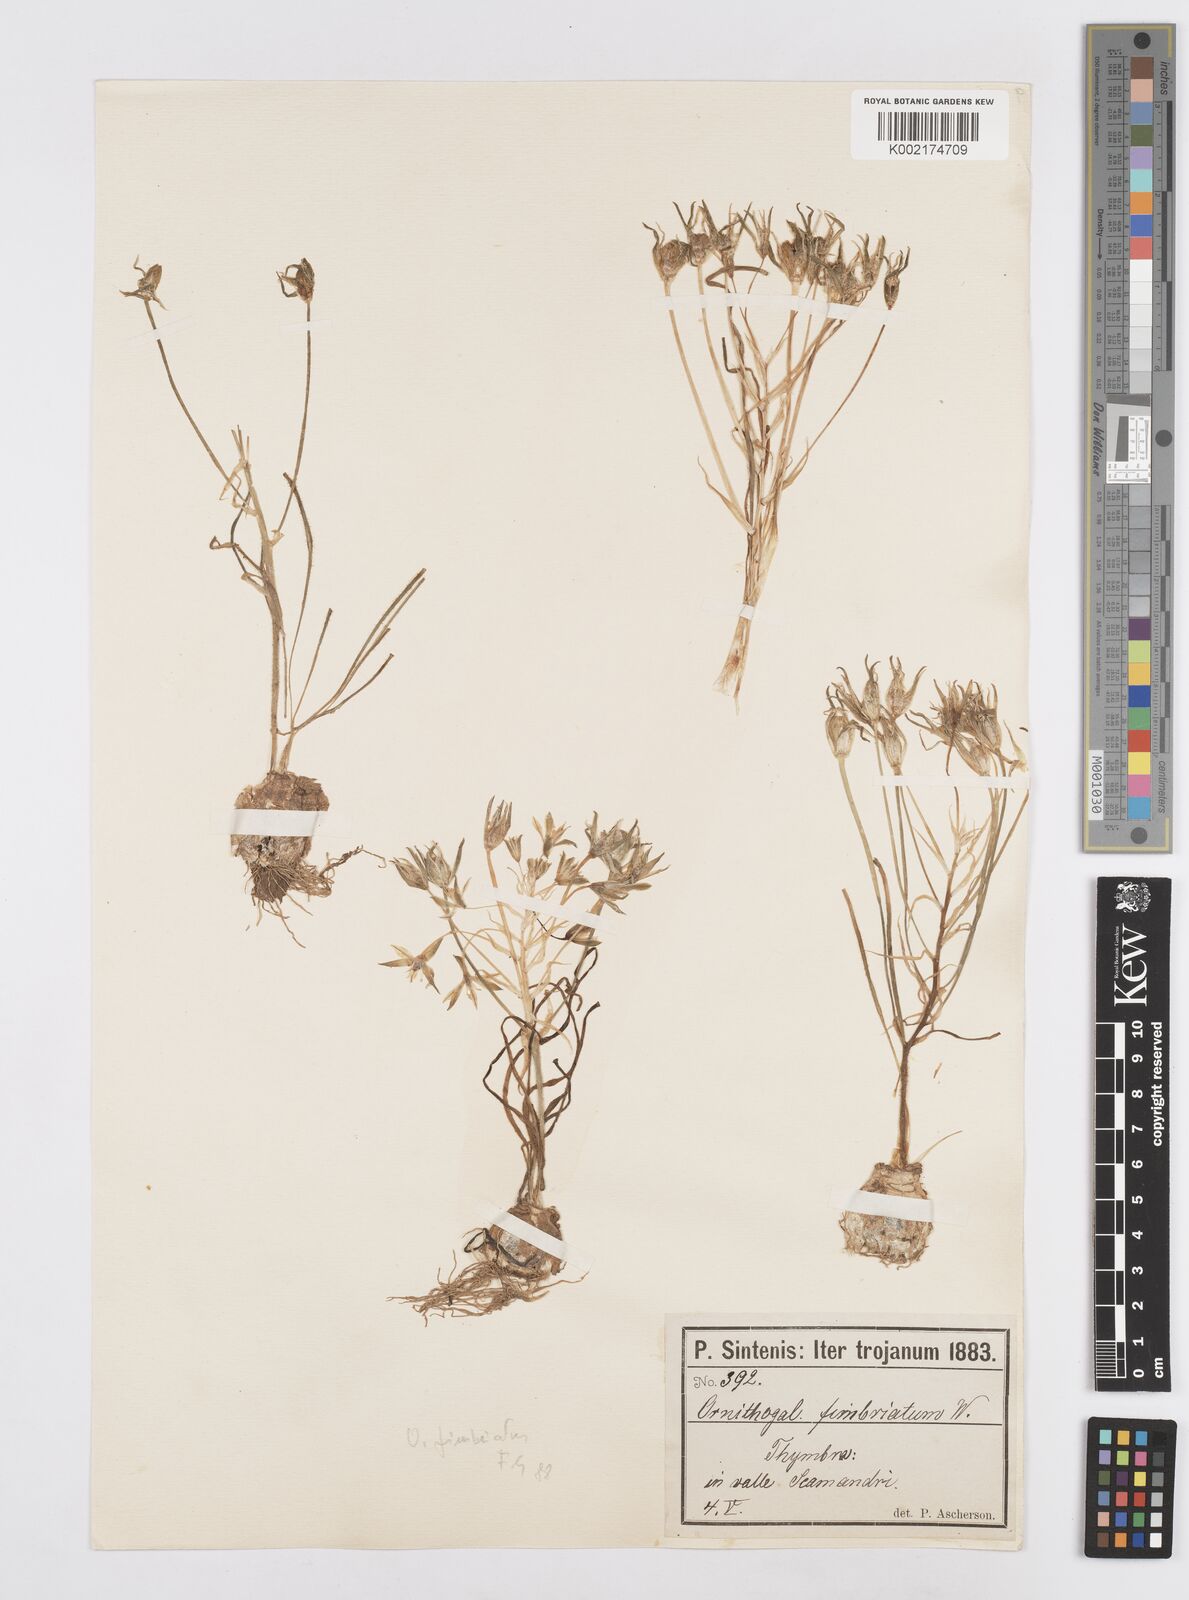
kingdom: Plantae
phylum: Tracheophyta
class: Liliopsida
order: Asparagales
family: Asparagaceae
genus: Ornithogalum
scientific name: Ornithogalum fimbriatum
